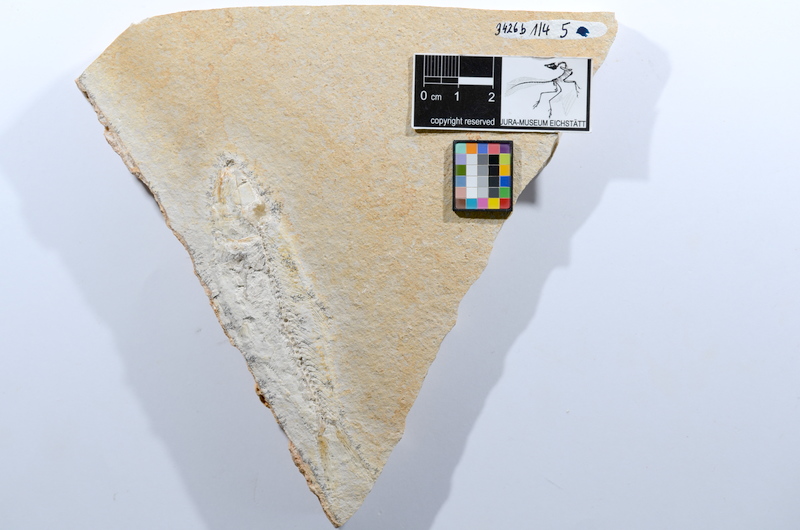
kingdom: Animalia
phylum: Chordata
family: Ascalaboidae
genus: Ascalabos
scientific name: Ascalabos voithii
